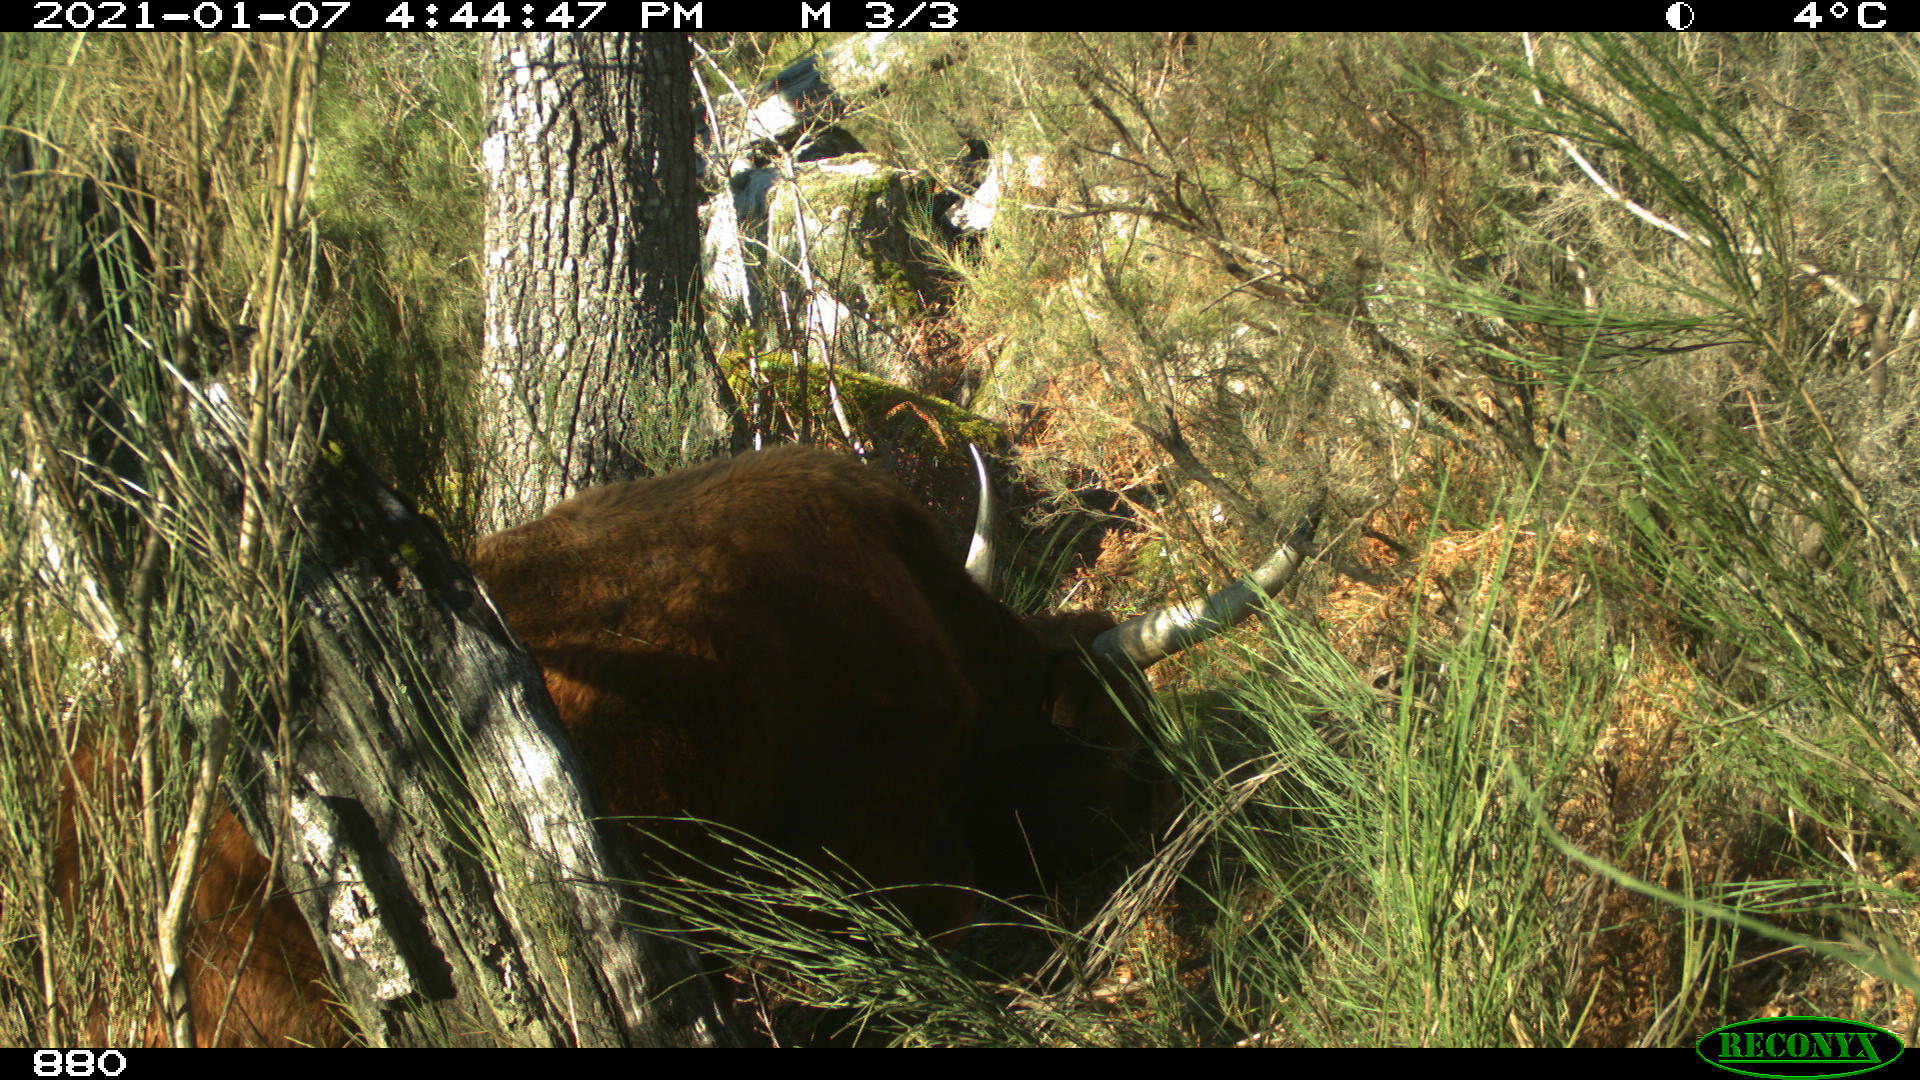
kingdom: Animalia
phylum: Chordata
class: Mammalia
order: Artiodactyla
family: Bovidae
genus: Bos
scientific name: Bos taurus
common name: Domesticated cattle
